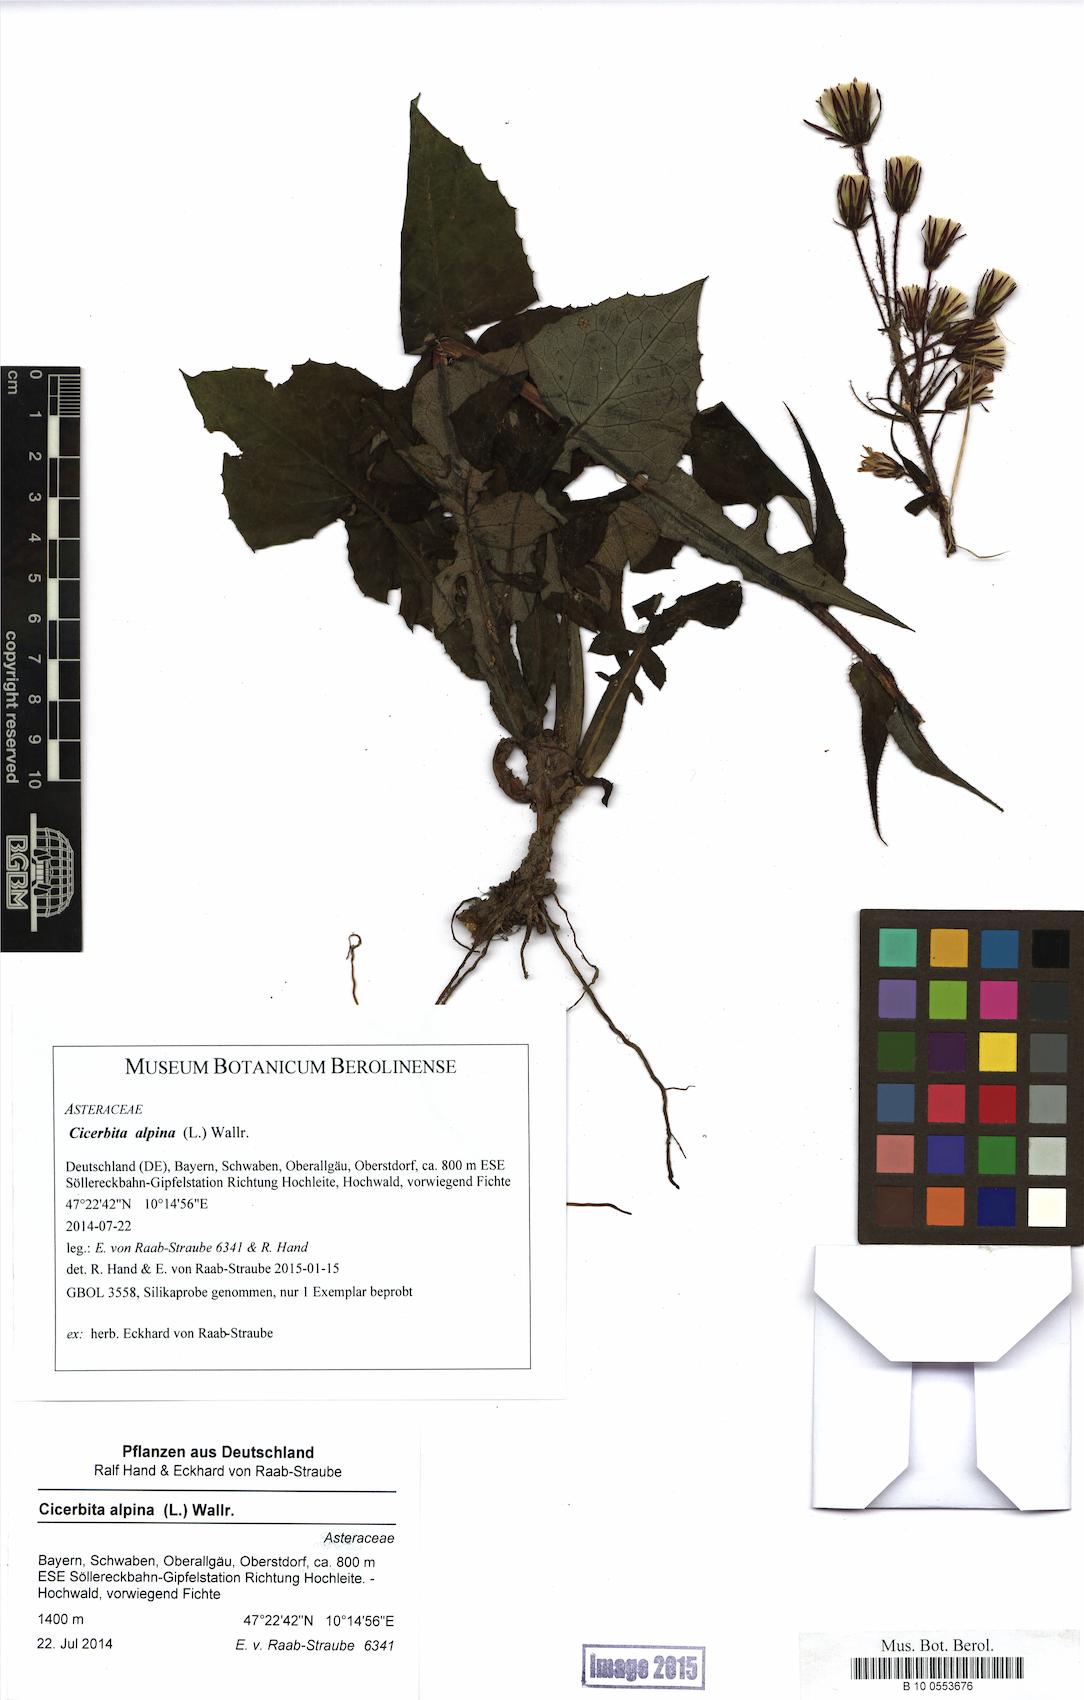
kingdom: Plantae
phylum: Tracheophyta
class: Magnoliopsida
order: Asterales
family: Asteraceae
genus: Cicerbita
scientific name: Cicerbita alpina
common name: Alpine blue-sow-thistle
